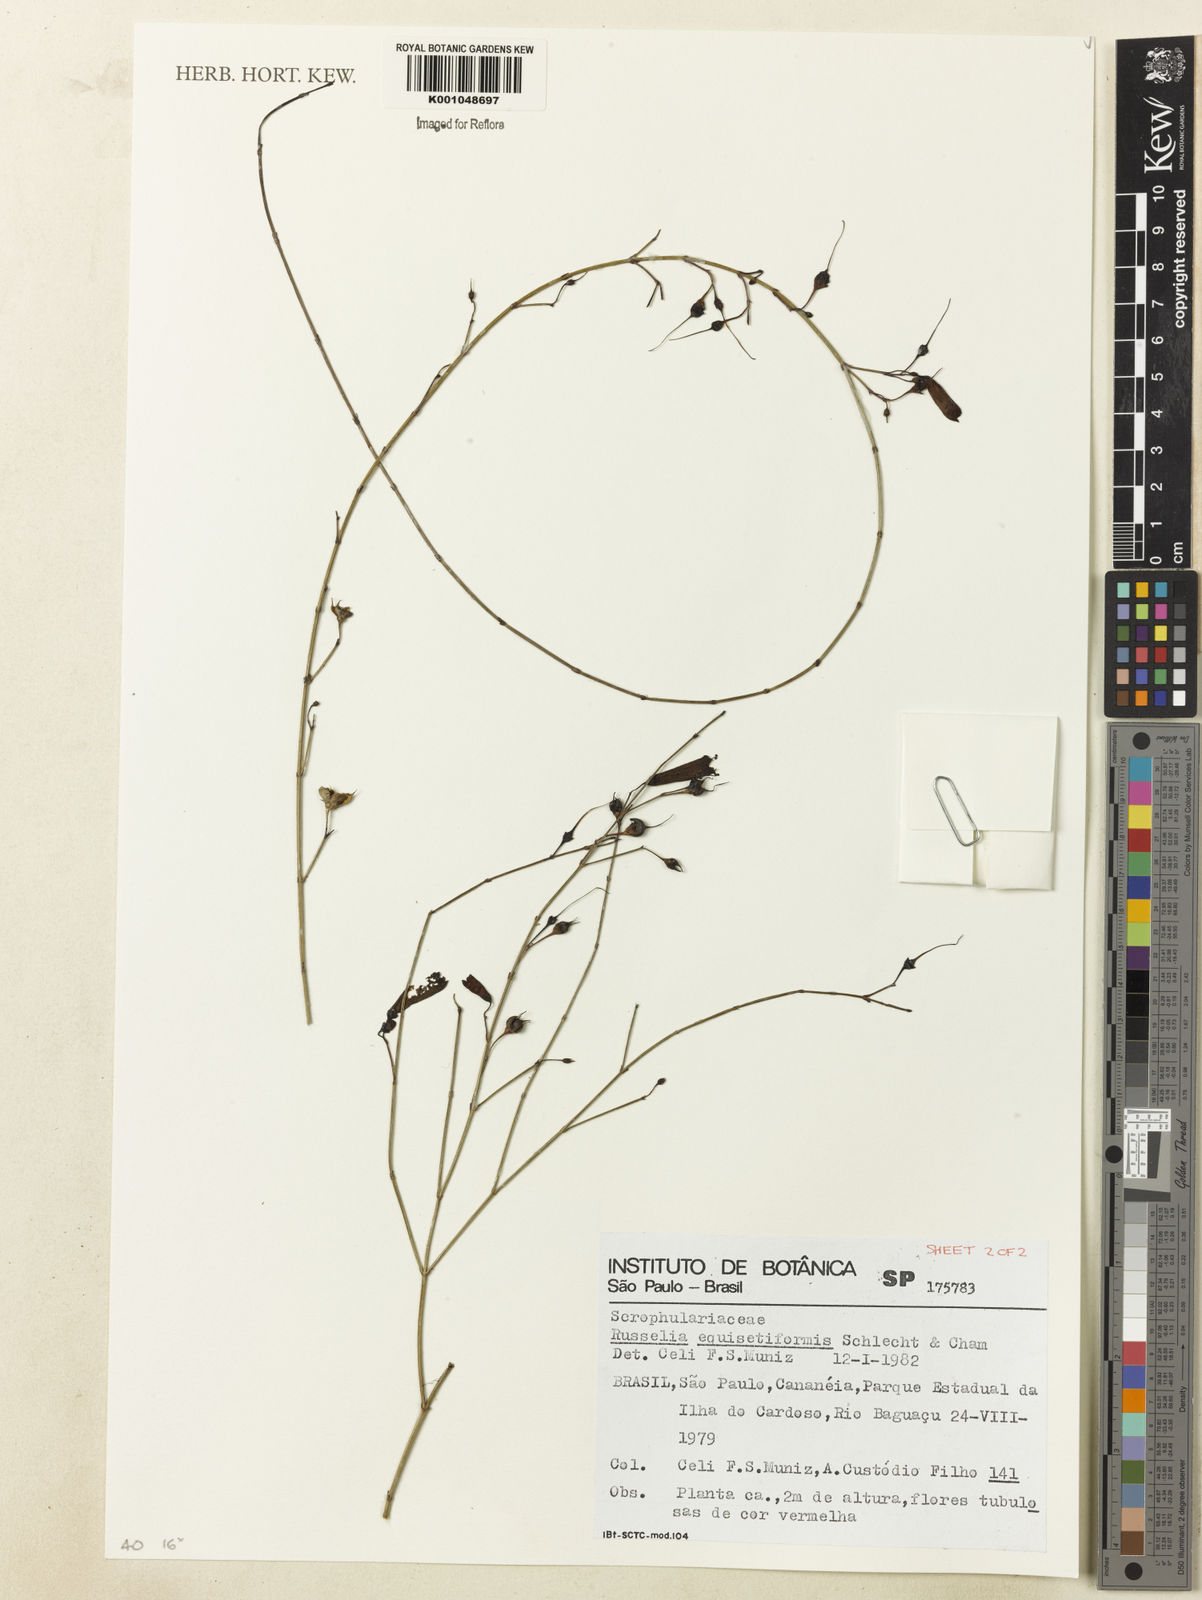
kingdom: Plantae
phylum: Tracheophyta
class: Magnoliopsida
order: Lamiales
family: Plantaginaceae
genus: Russelia
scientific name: Russelia equisetiformis
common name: Fountainbush
